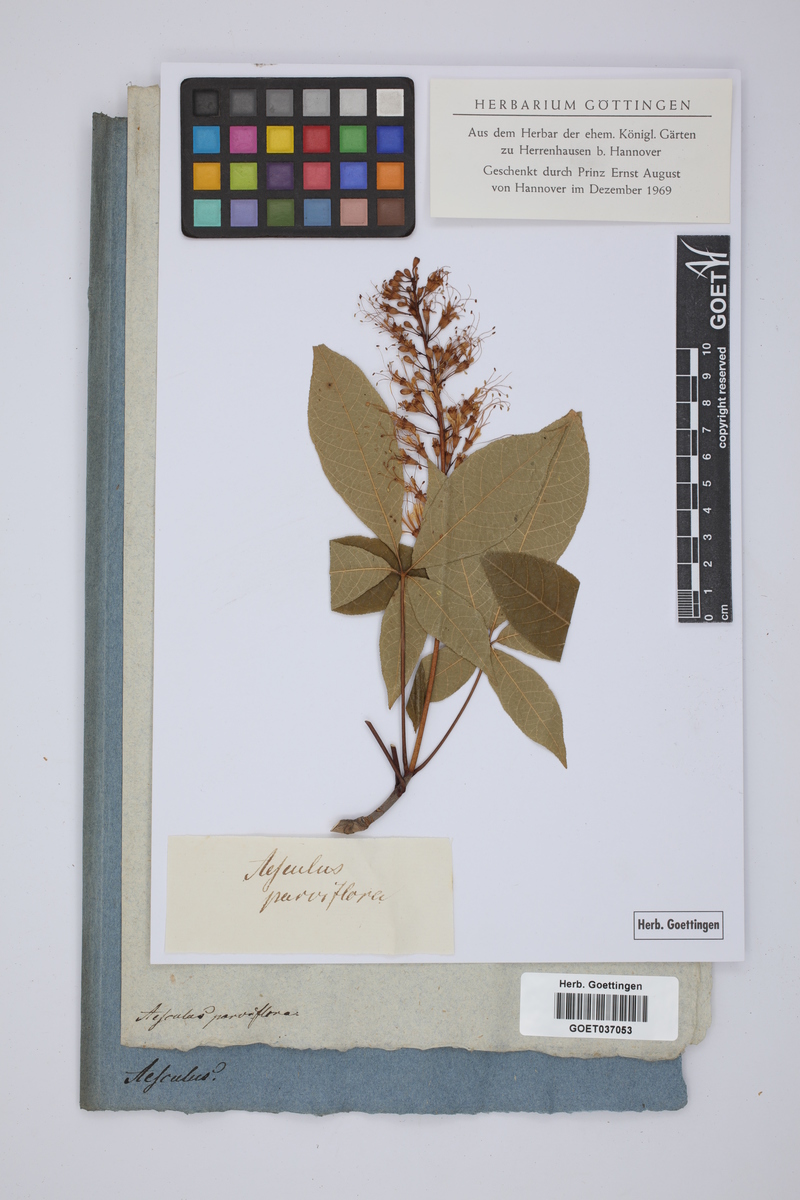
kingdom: Plantae
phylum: Tracheophyta
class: Magnoliopsida
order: Sapindales
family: Sapindaceae
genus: Aesculus
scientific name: Aesculus parviflora
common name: Bottlebrush buckeye
